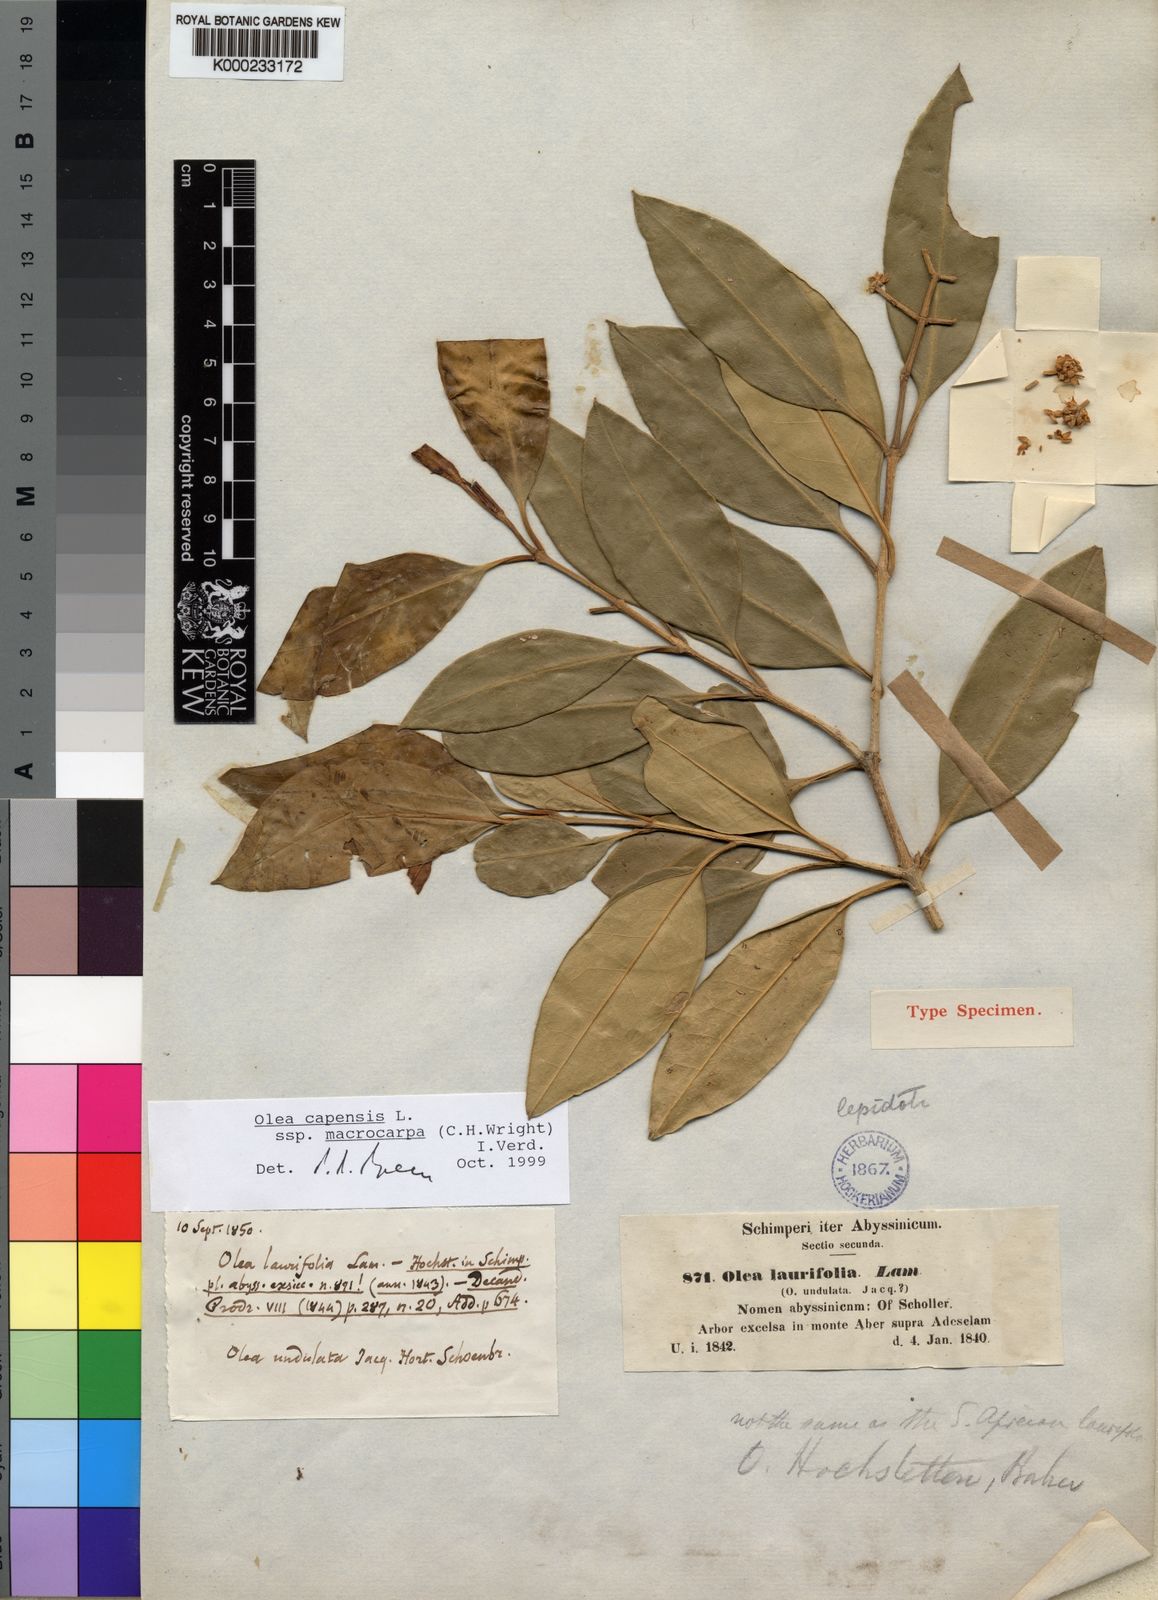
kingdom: Plantae
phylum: Tracheophyta
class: Magnoliopsida
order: Lamiales
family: Oleaceae
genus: Olea
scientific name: Olea capensis
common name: Black ironwood
